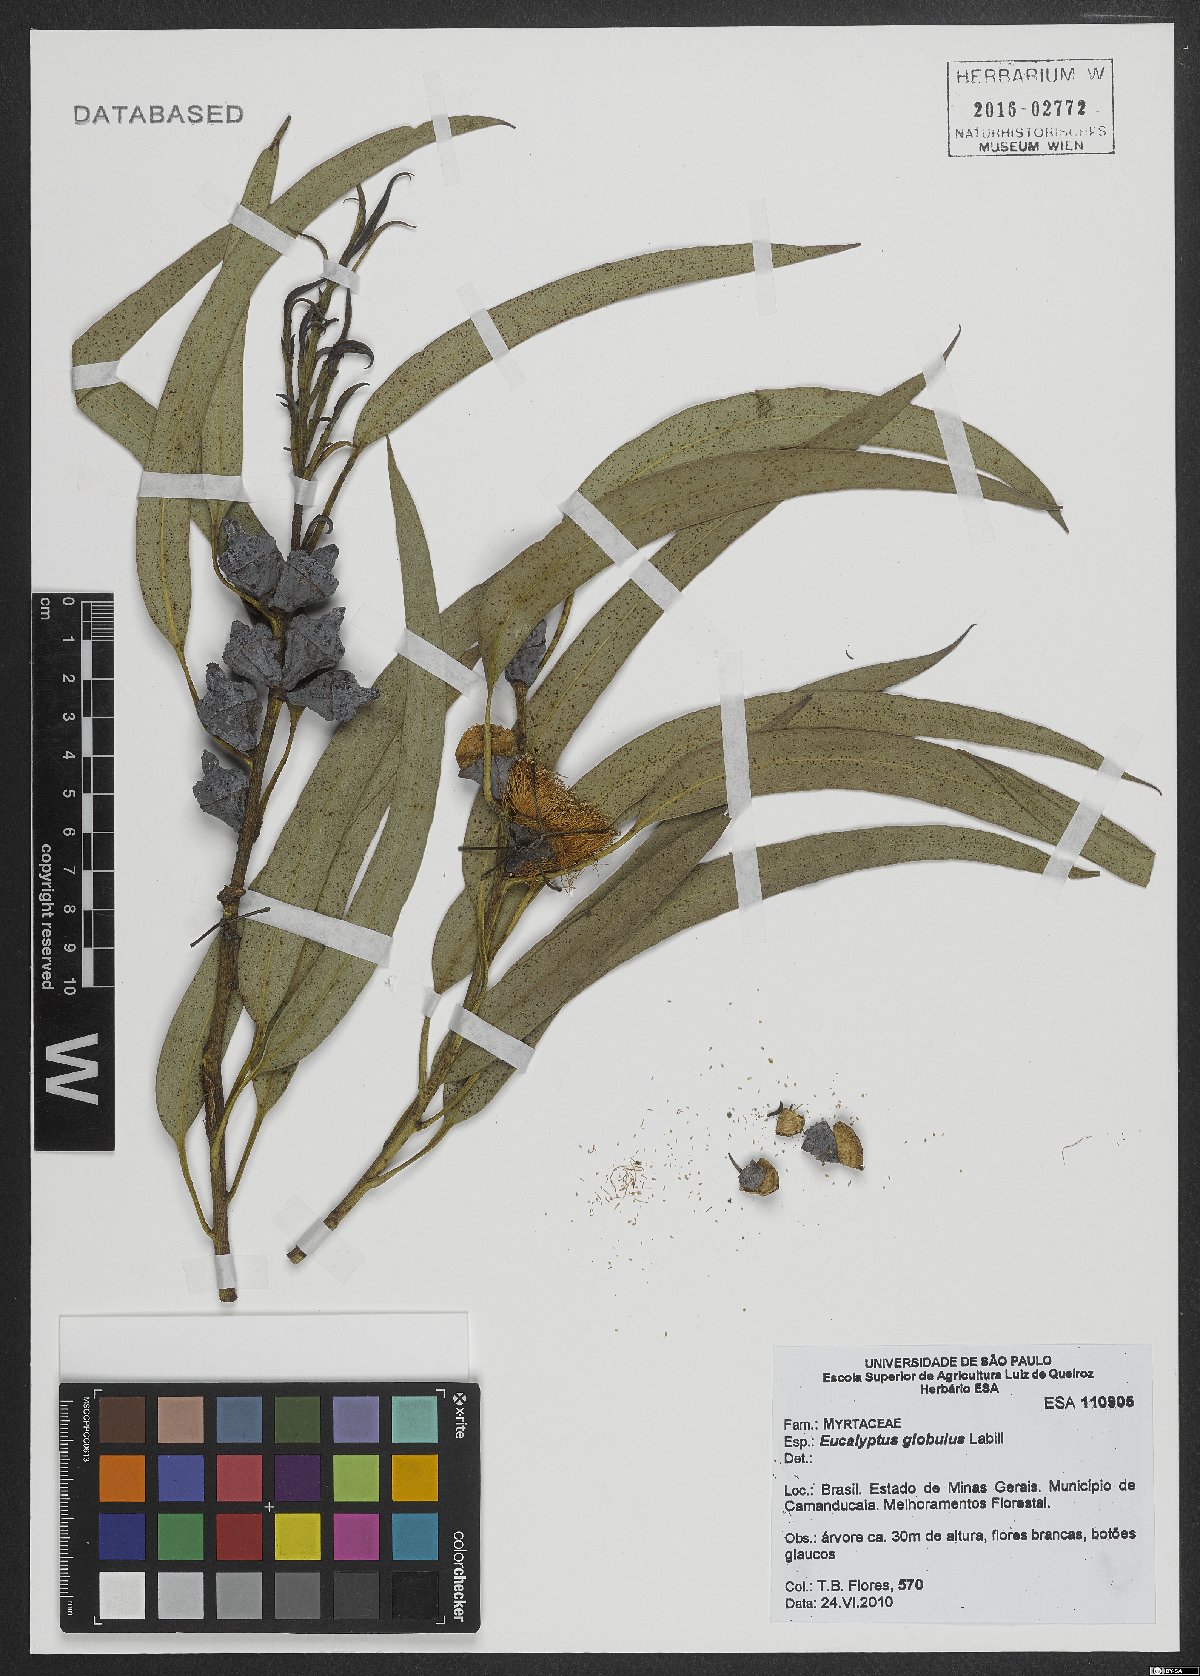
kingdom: Plantae
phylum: Tracheophyta
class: Magnoliopsida
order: Myrtales
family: Myrtaceae
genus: Eucalyptus
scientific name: Eucalyptus globulus
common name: Southern blue-gum
